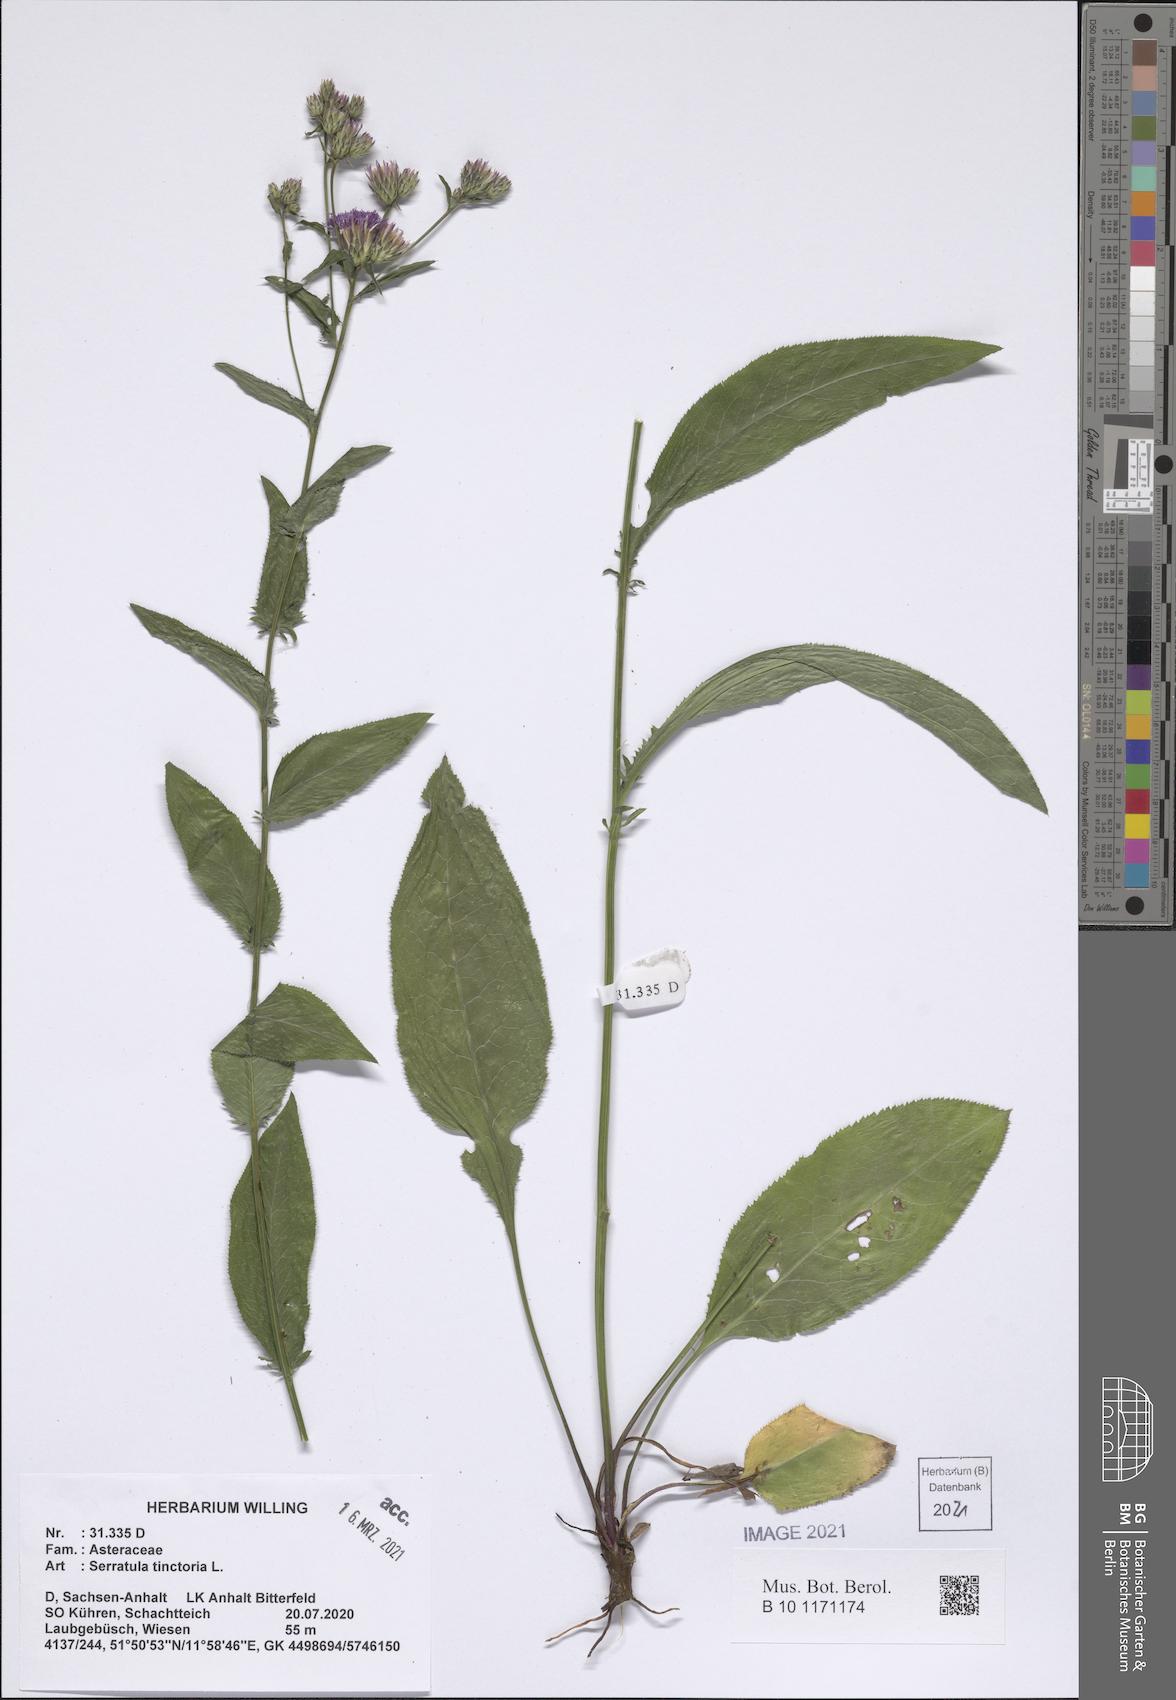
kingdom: Plantae
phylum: Tracheophyta
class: Magnoliopsida
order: Asterales
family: Asteraceae
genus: Serratula
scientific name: Serratula tinctoria
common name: Saw-wort
